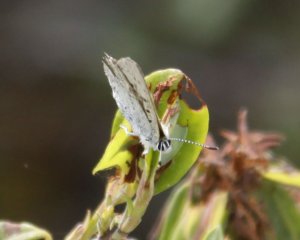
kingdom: Animalia
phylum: Arthropoda
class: Insecta
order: Lepidoptera
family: Lycaenidae
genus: Agriades
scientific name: Agriades glandon
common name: Arctic Blue
